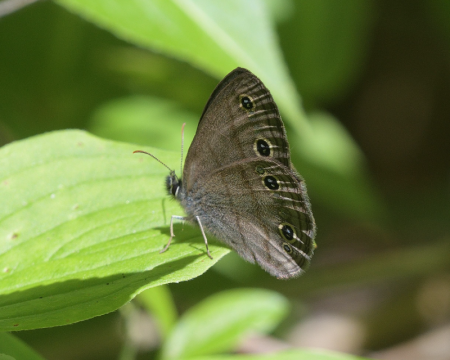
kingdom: Animalia
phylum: Arthropoda
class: Insecta
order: Lepidoptera
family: Nymphalidae
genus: Euptychia
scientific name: Euptychia cymela
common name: Little Wood Satyr
